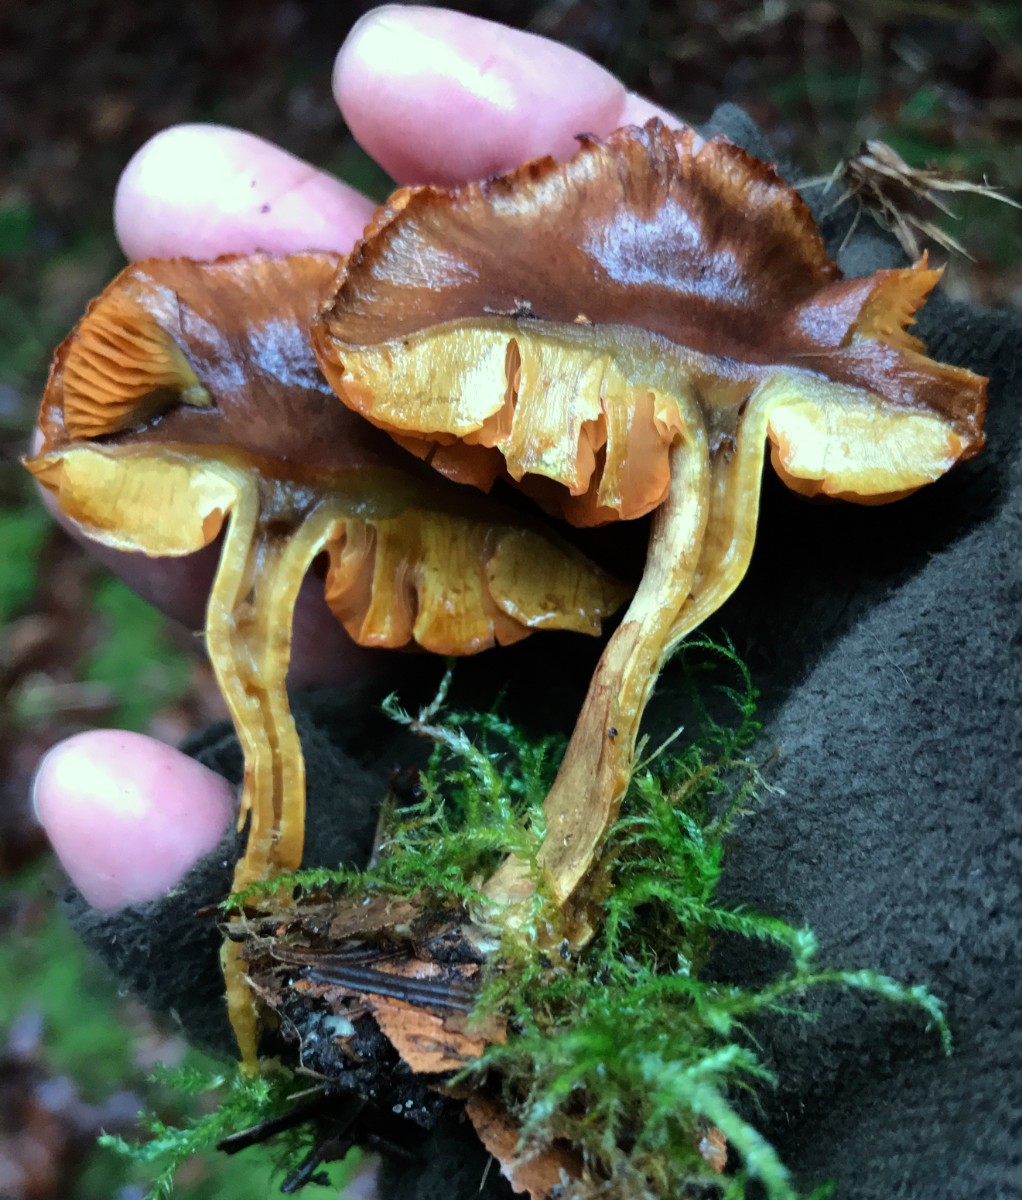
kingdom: Fungi
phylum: Basidiomycota
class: Agaricomycetes
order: Agaricales
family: Cortinariaceae
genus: Cortinarius
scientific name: Cortinarius malicorius
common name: grønkødet slørhat
